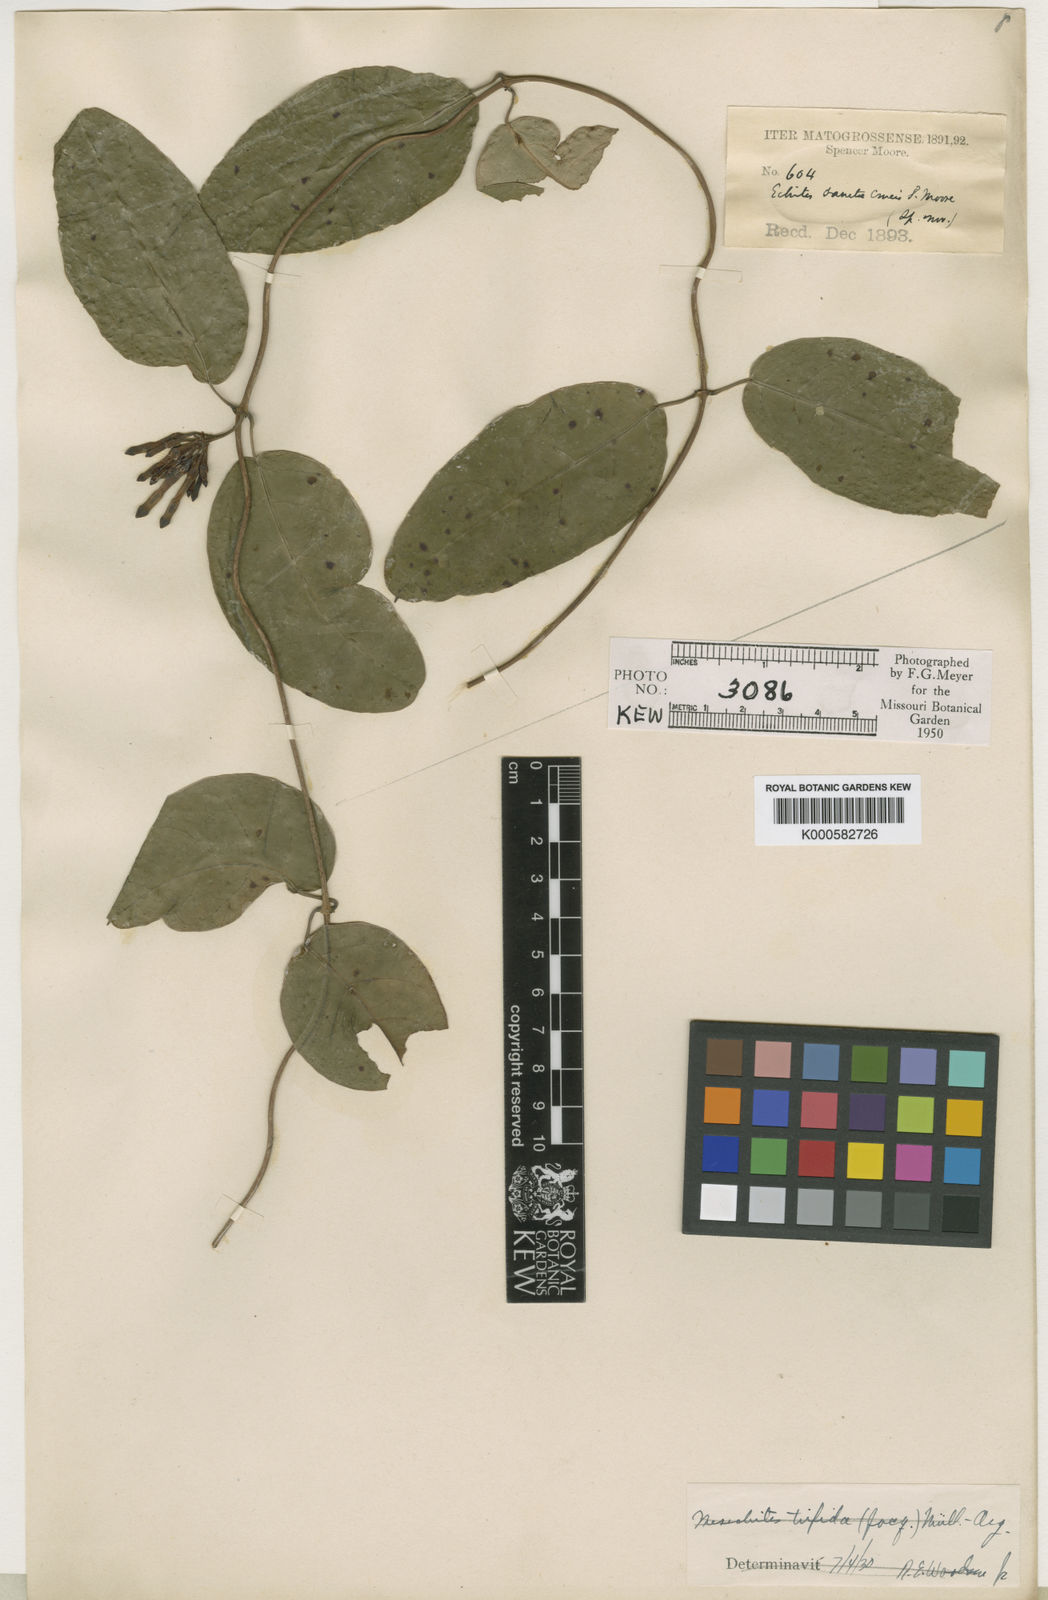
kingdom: Plantae
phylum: Tracheophyta
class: Magnoliopsida
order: Gentianales
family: Apocynaceae
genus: Mesechites
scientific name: Mesechites
